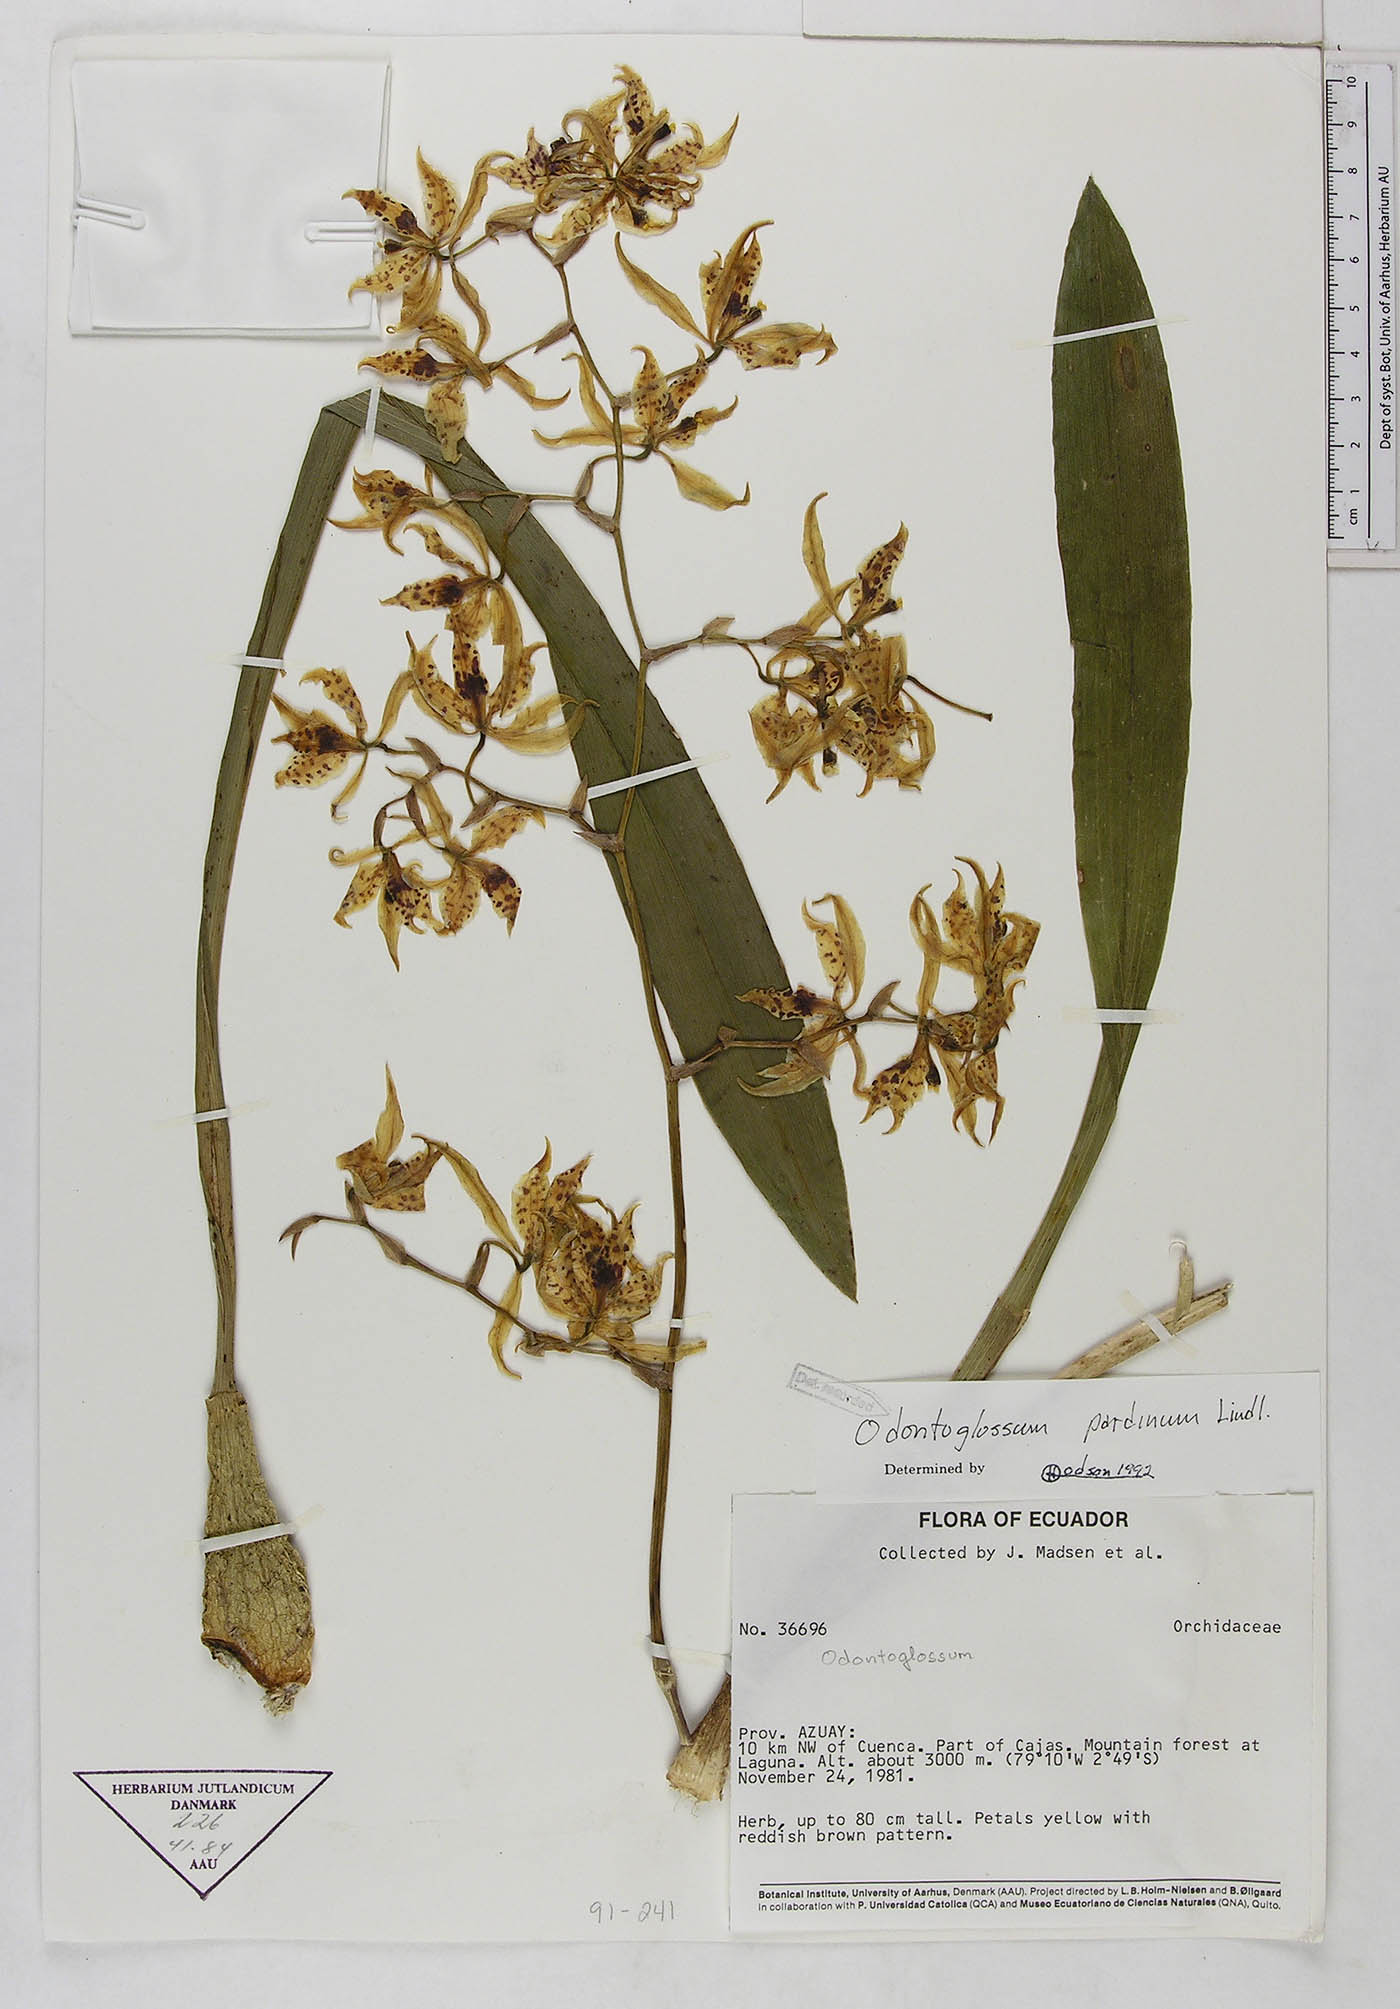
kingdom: Plantae
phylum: Tracheophyta
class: Liliopsida
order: Asparagales
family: Orchidaceae
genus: Cyrtochilum
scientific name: Cyrtochilum pardinum
